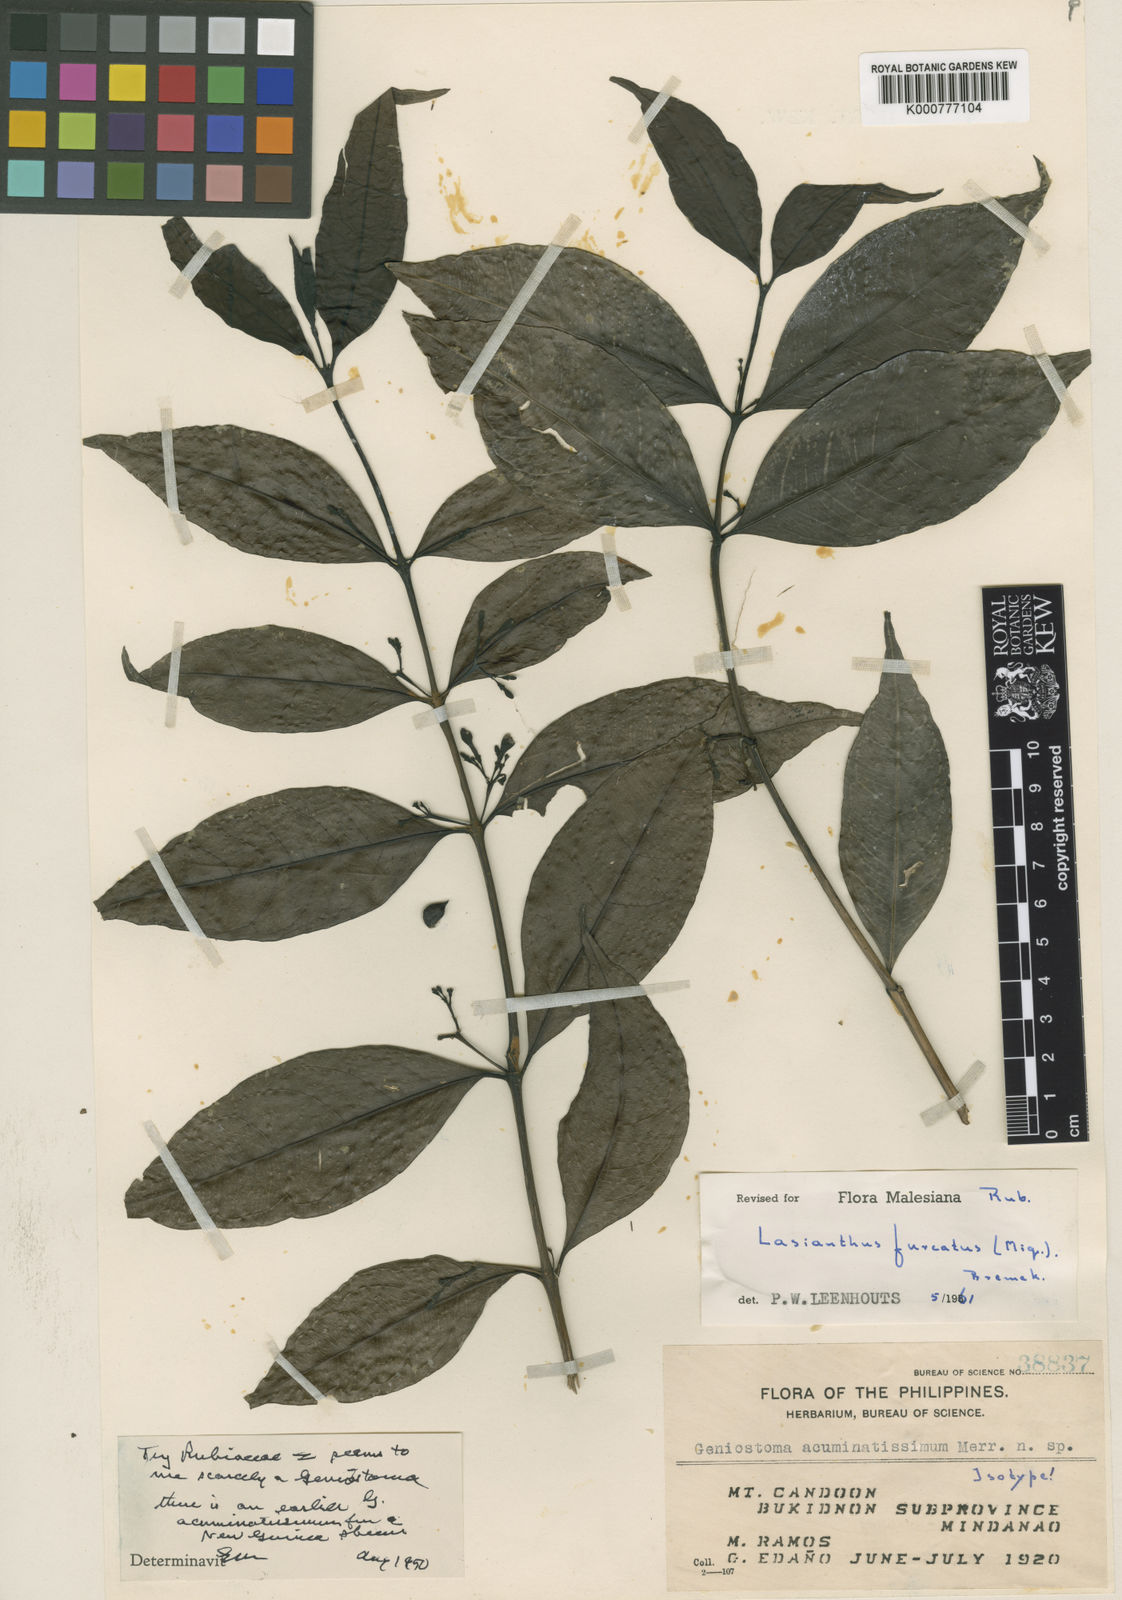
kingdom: Plantae
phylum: Tracheophyta
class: Magnoliopsida
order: Gentianales
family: Rubiaceae
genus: Paralasianthus
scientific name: Paralasianthus dichotomus
